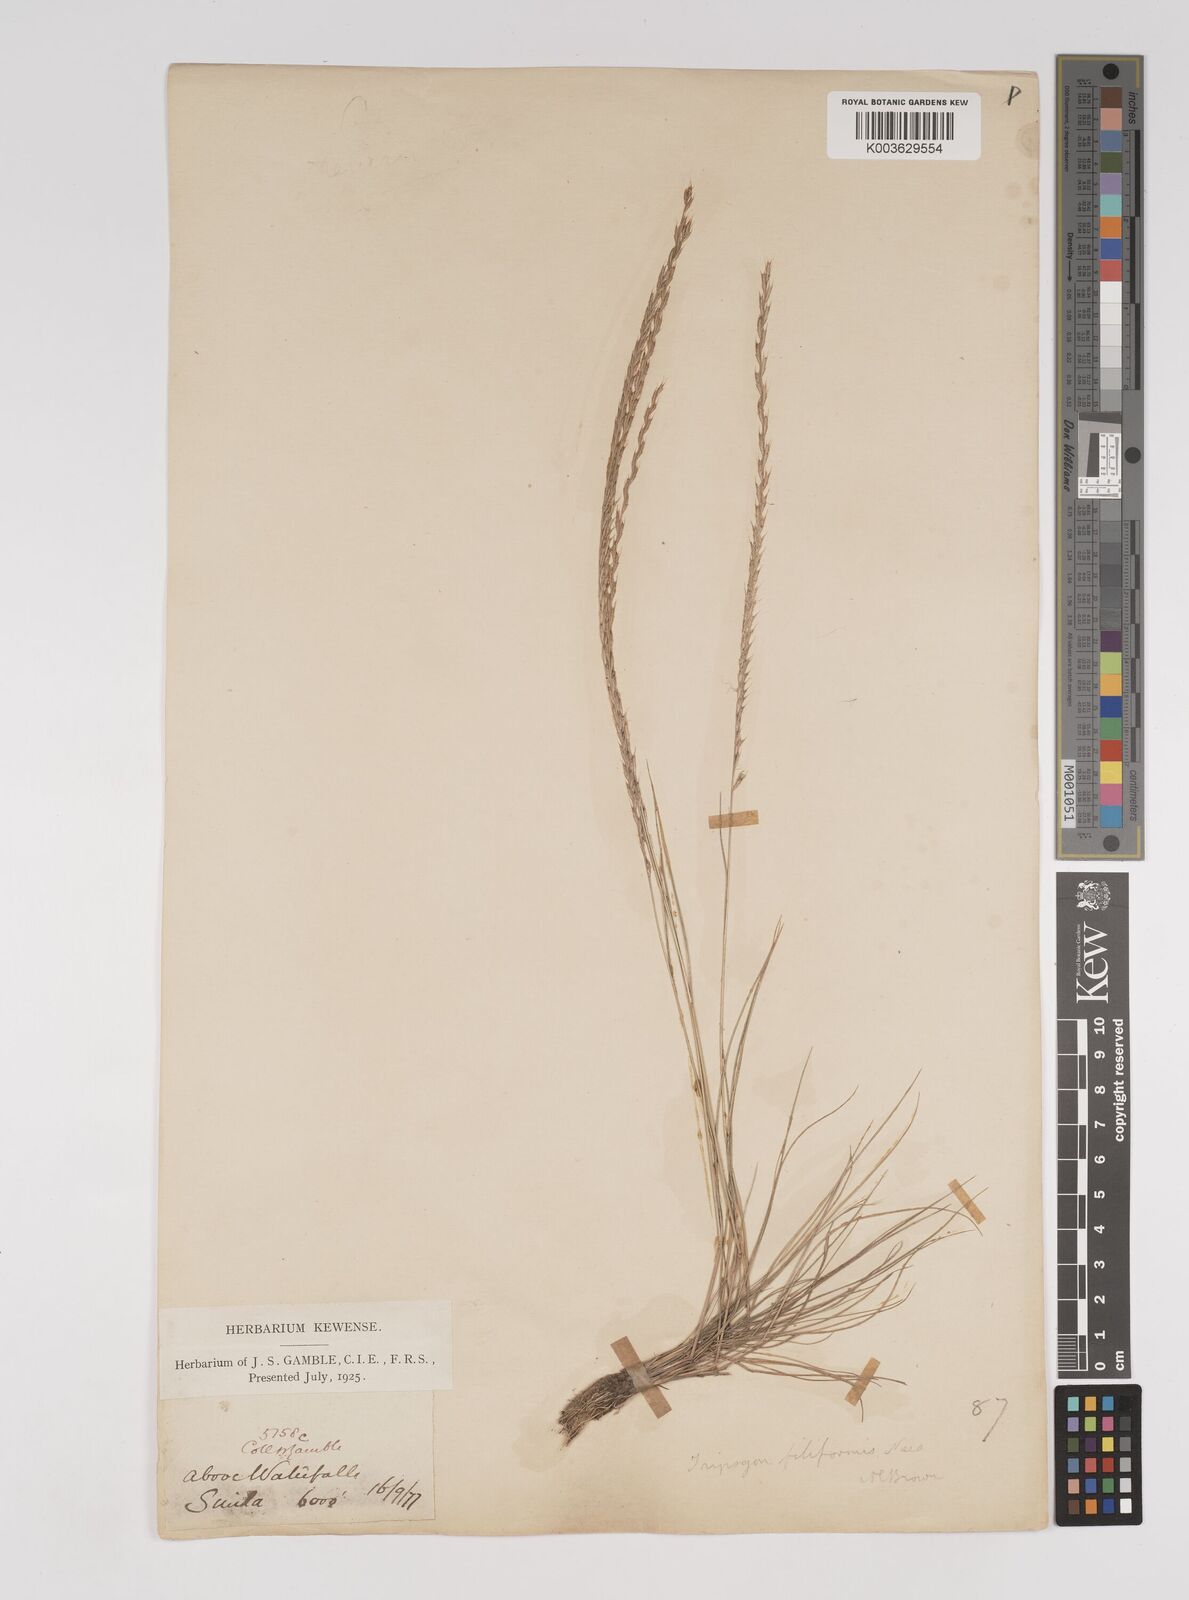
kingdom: Plantae
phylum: Tracheophyta
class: Liliopsida
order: Poales
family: Poaceae
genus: Tripogon
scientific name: Tripogon filiformis
